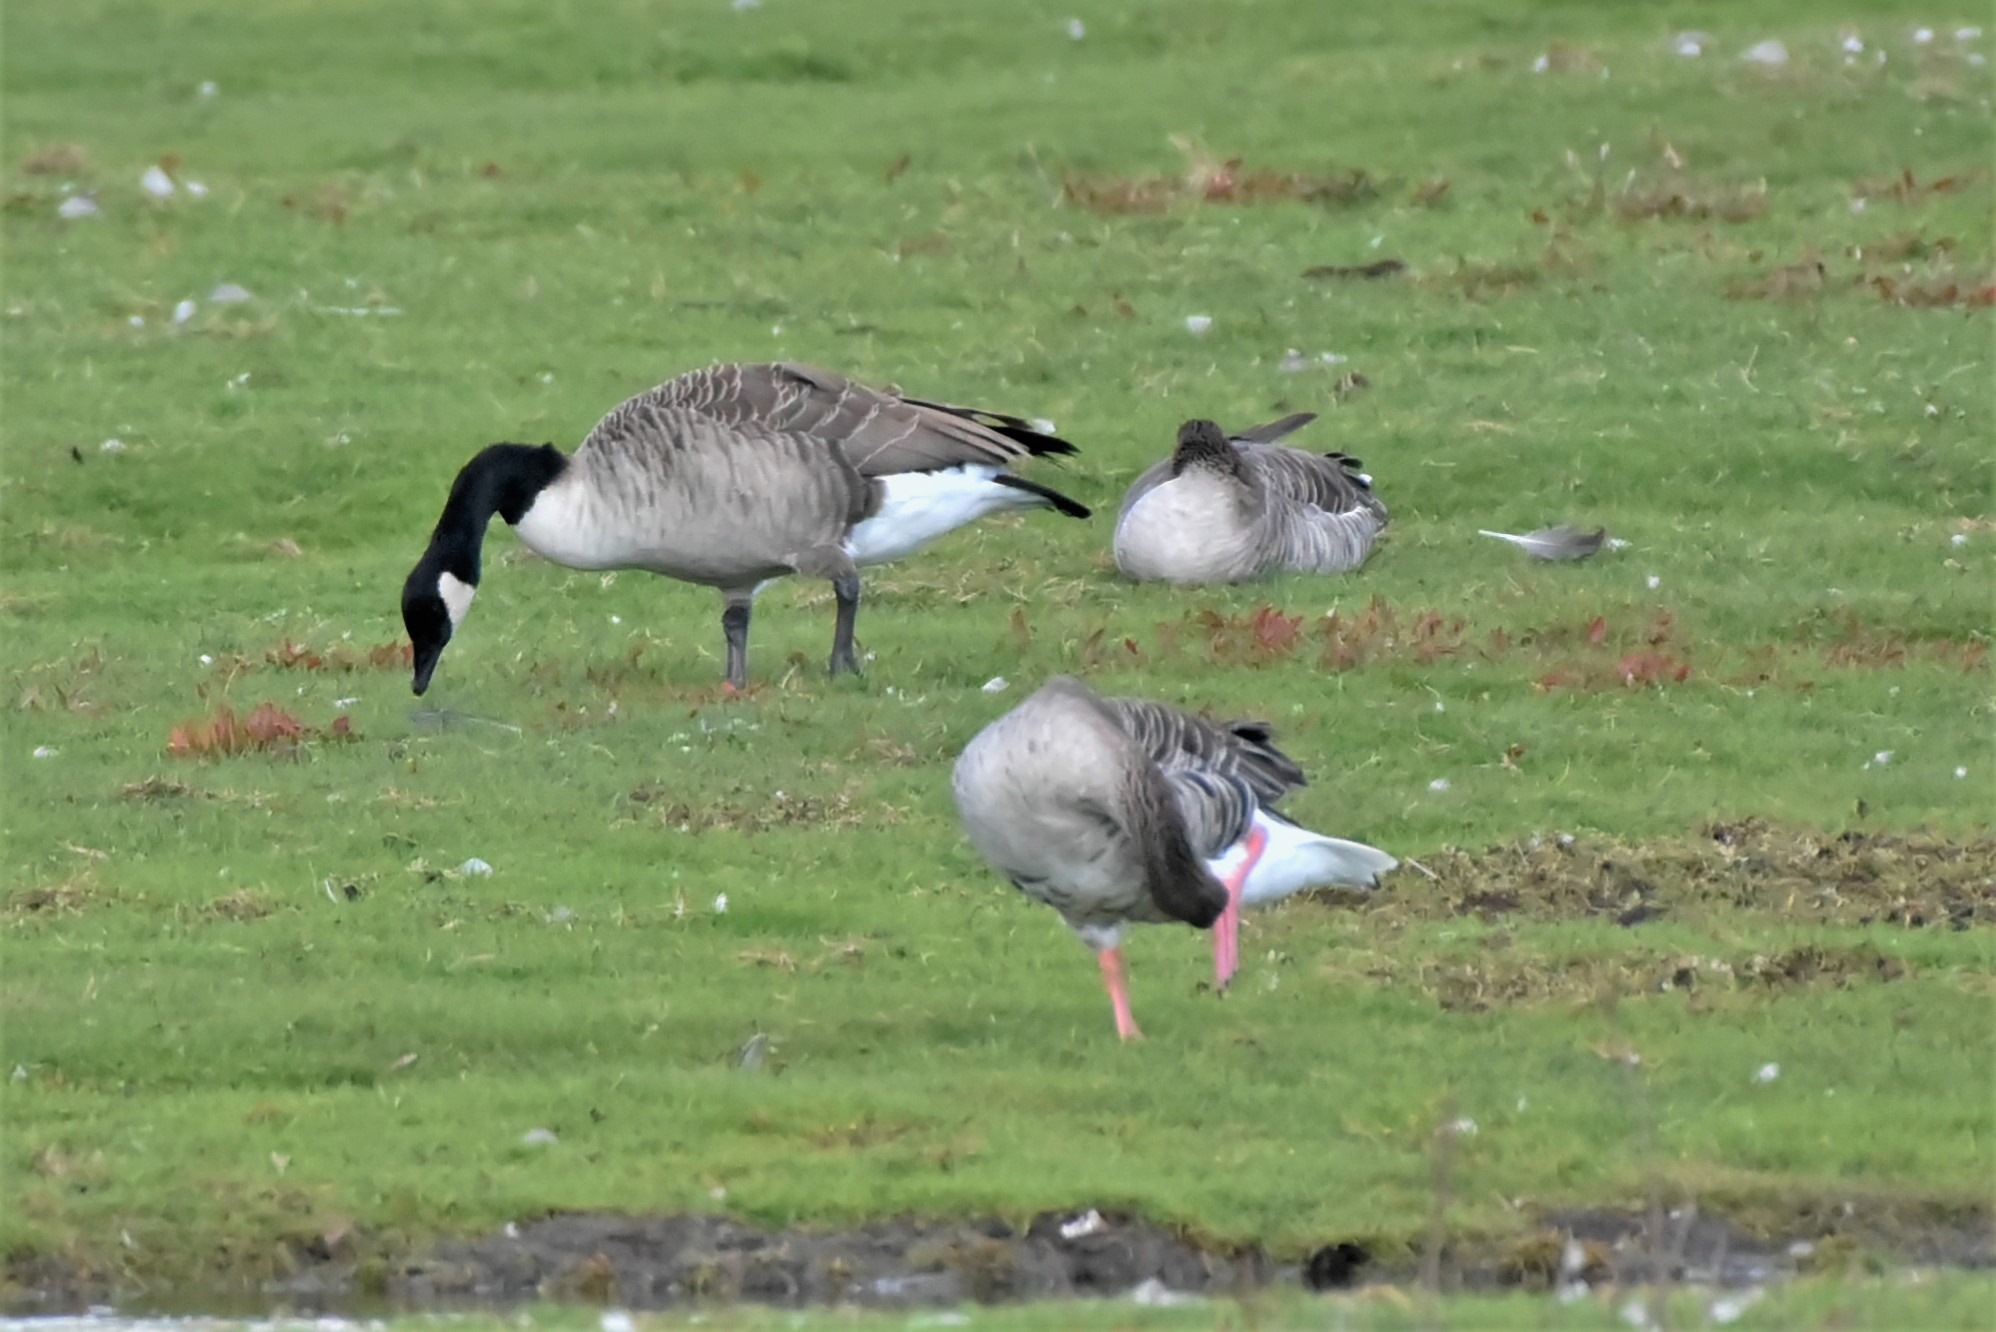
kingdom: Animalia
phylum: Chordata
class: Aves
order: Anseriformes
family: Anatidae
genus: Branta
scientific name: Branta canadensis
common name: Canadagås
